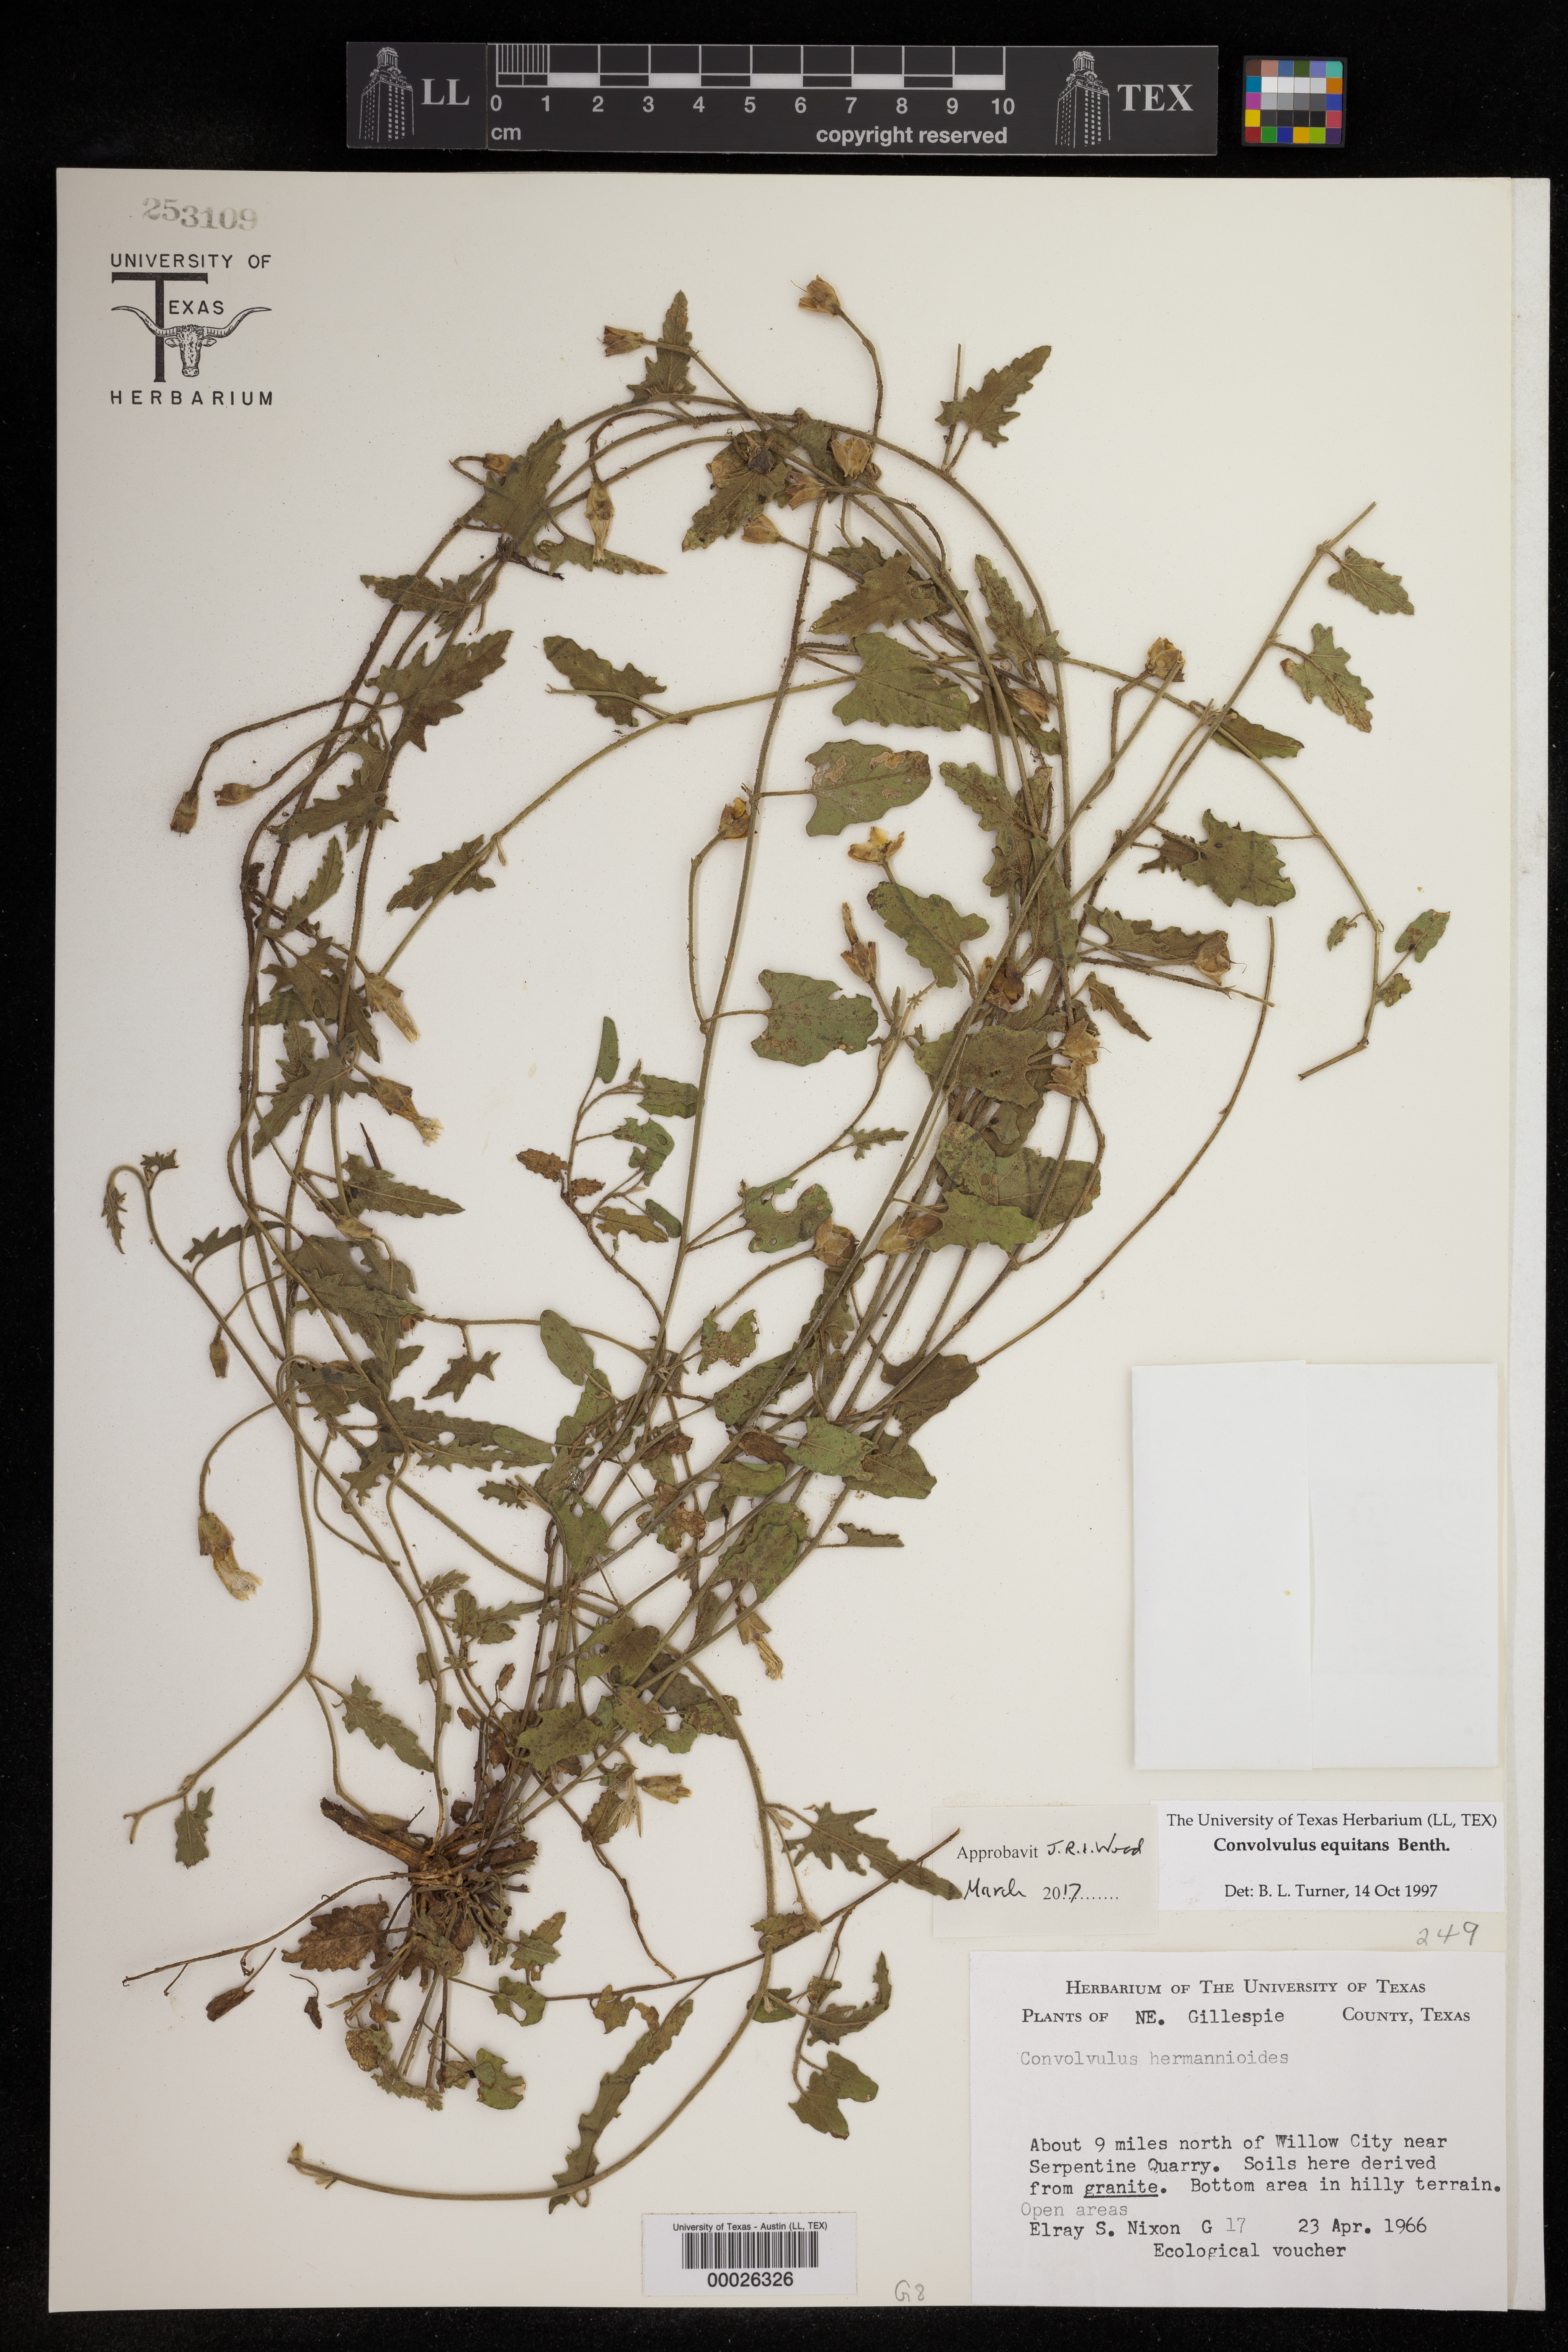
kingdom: Plantae
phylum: Tracheophyta
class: Magnoliopsida
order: Solanales
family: Convolvulaceae
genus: Convolvulus
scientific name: Convolvulus equitans
